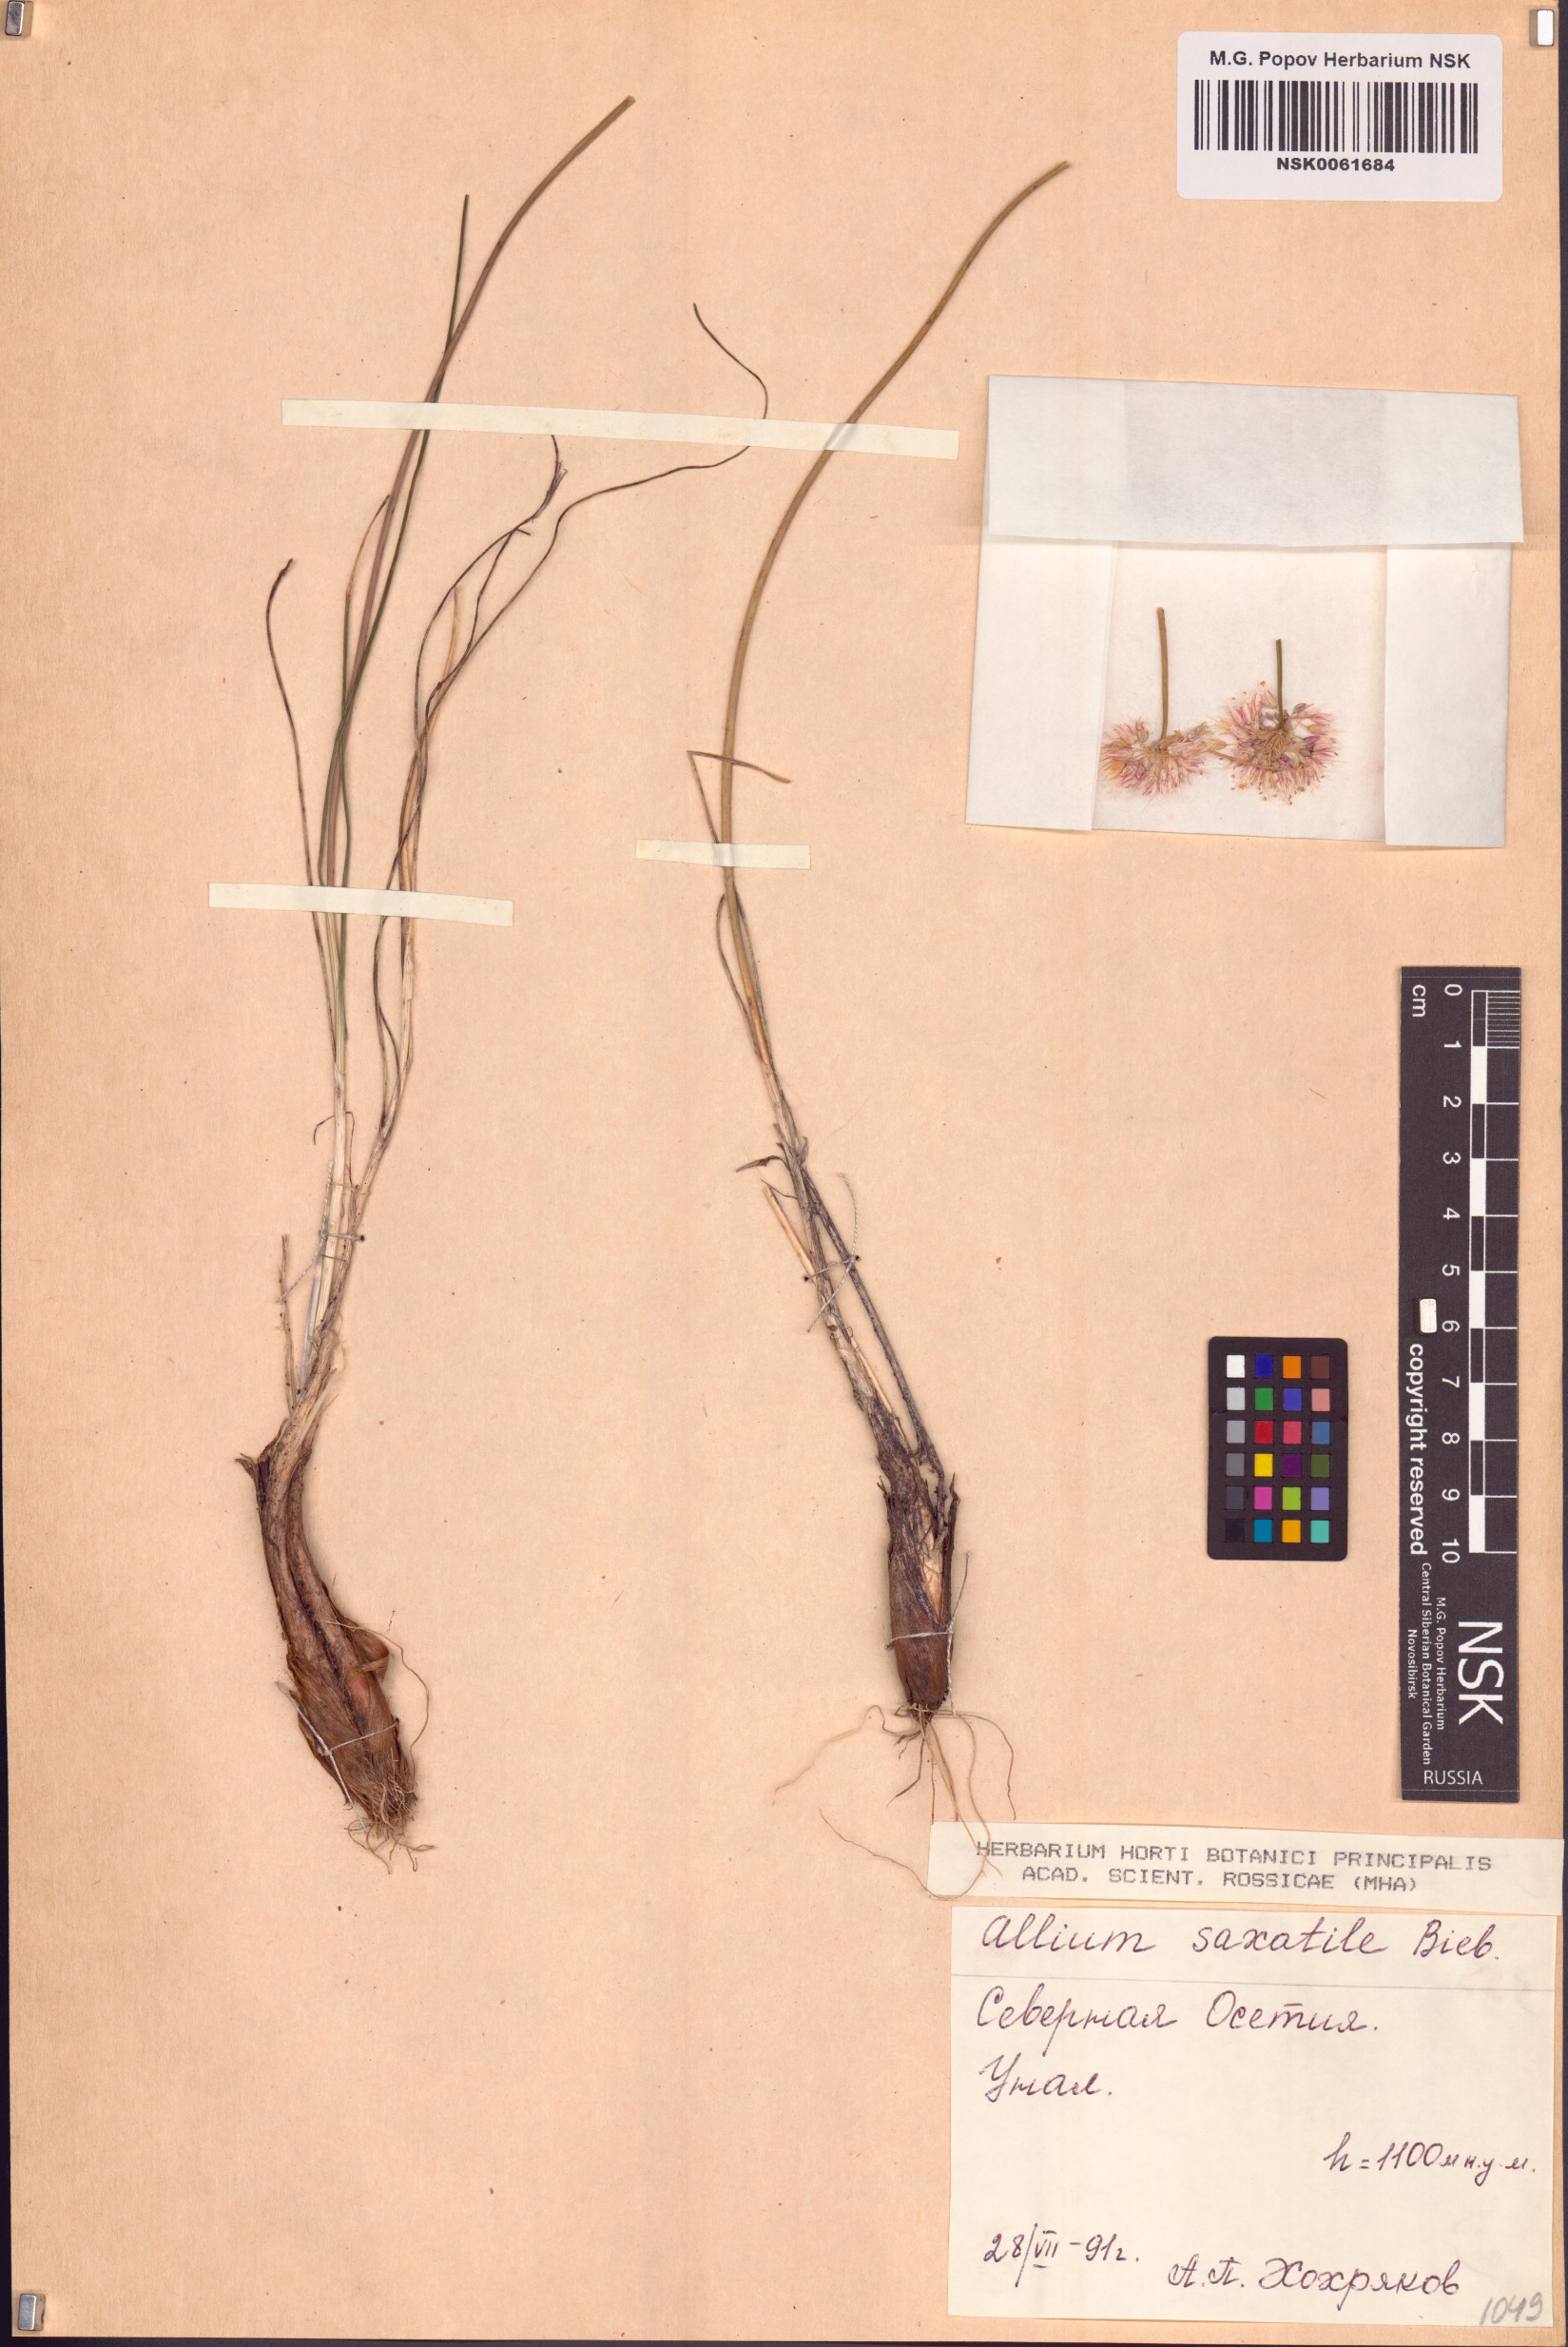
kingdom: Plantae
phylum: Tracheophyta
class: Liliopsida
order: Asparagales
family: Amaryllidaceae
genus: Allium
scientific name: Allium saxatile
